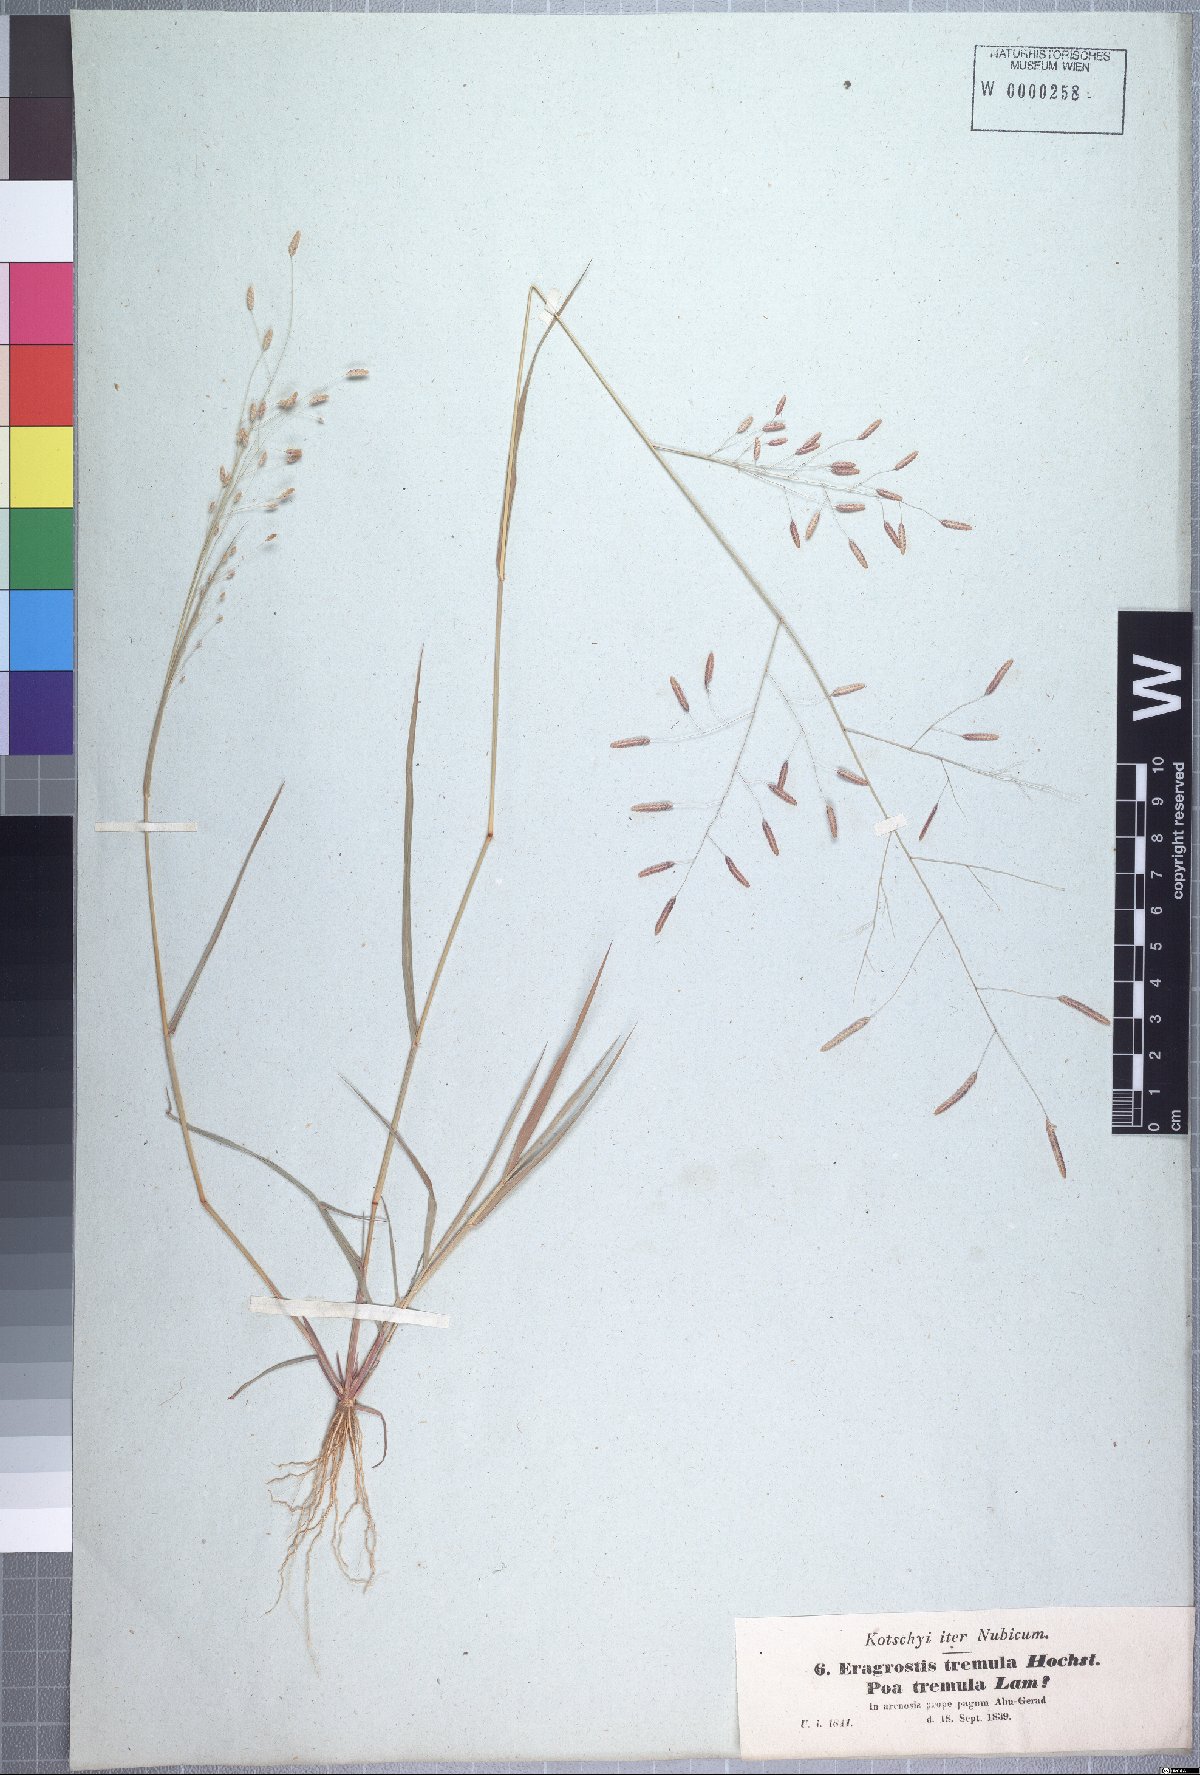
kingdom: Plantae
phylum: Tracheophyta
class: Liliopsida
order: Poales
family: Poaceae
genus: Eragrostis
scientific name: Eragrostis tremula
